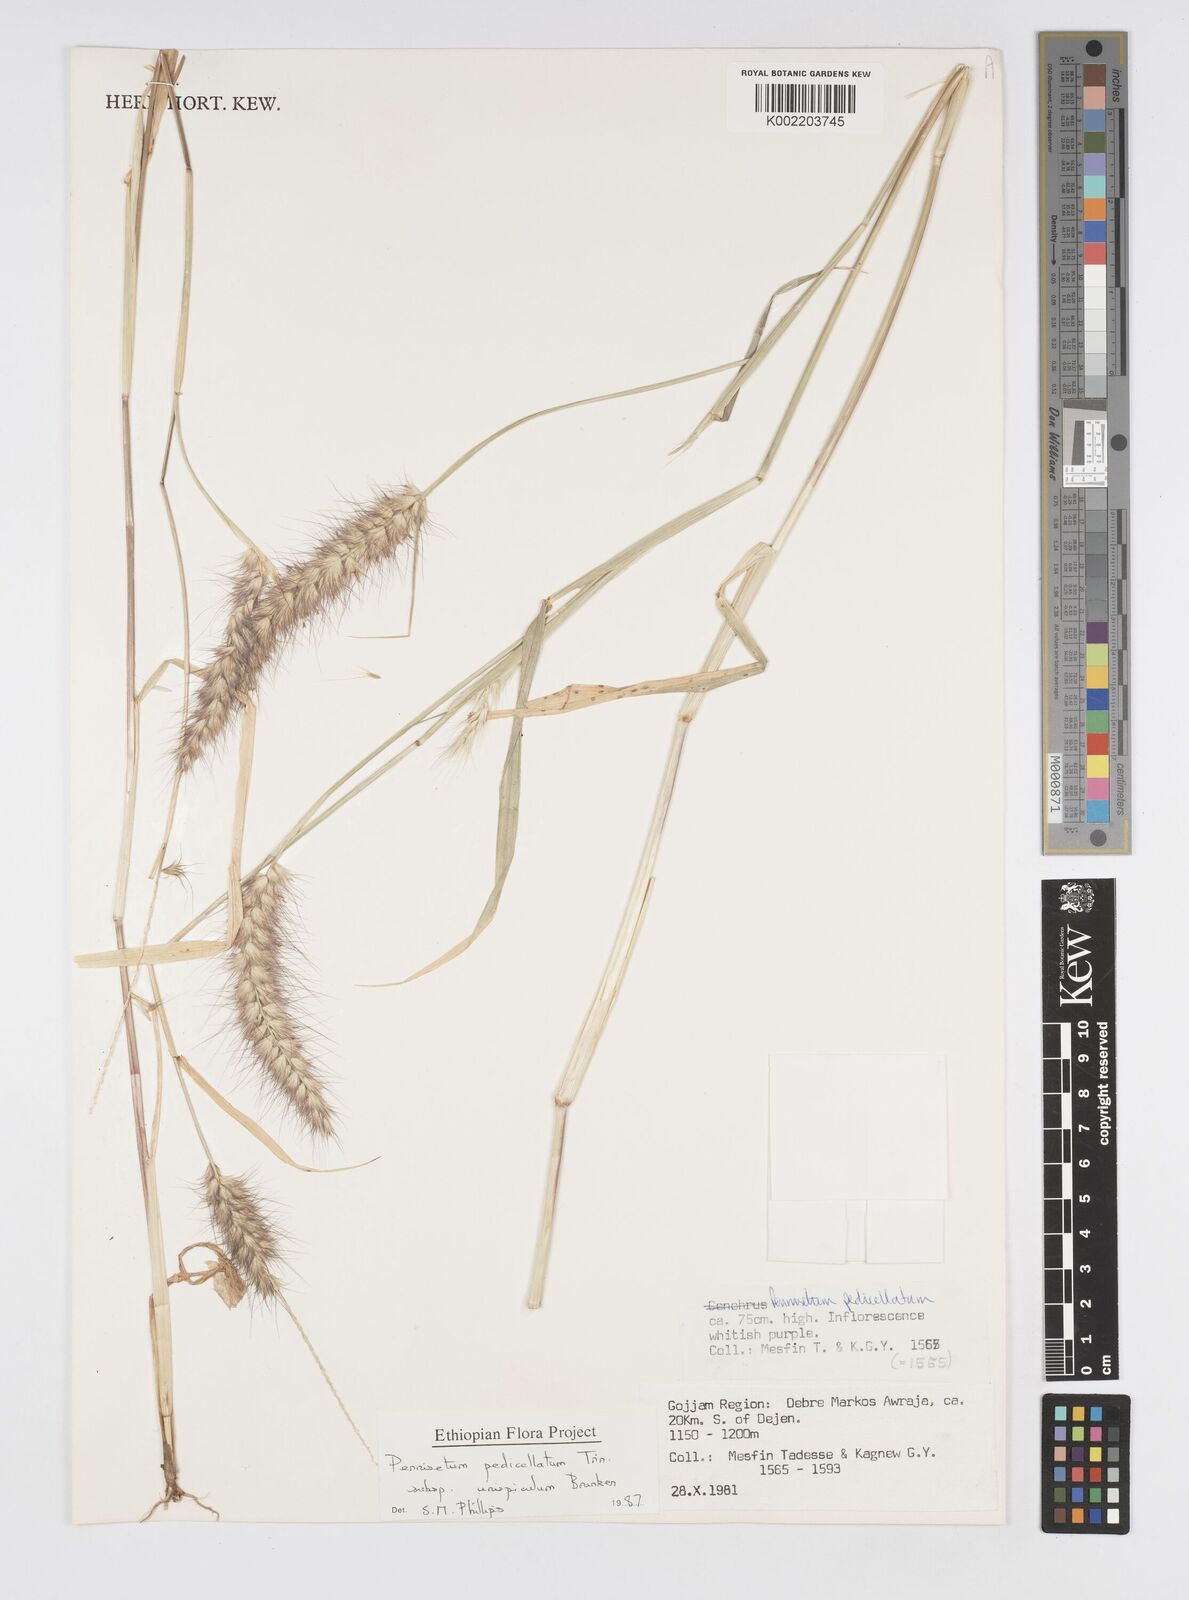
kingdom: Plantae
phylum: Tracheophyta
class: Liliopsida
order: Poales
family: Poaceae
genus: Cenchrus
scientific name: Cenchrus pedicellatus
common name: Hairy fountain grass
